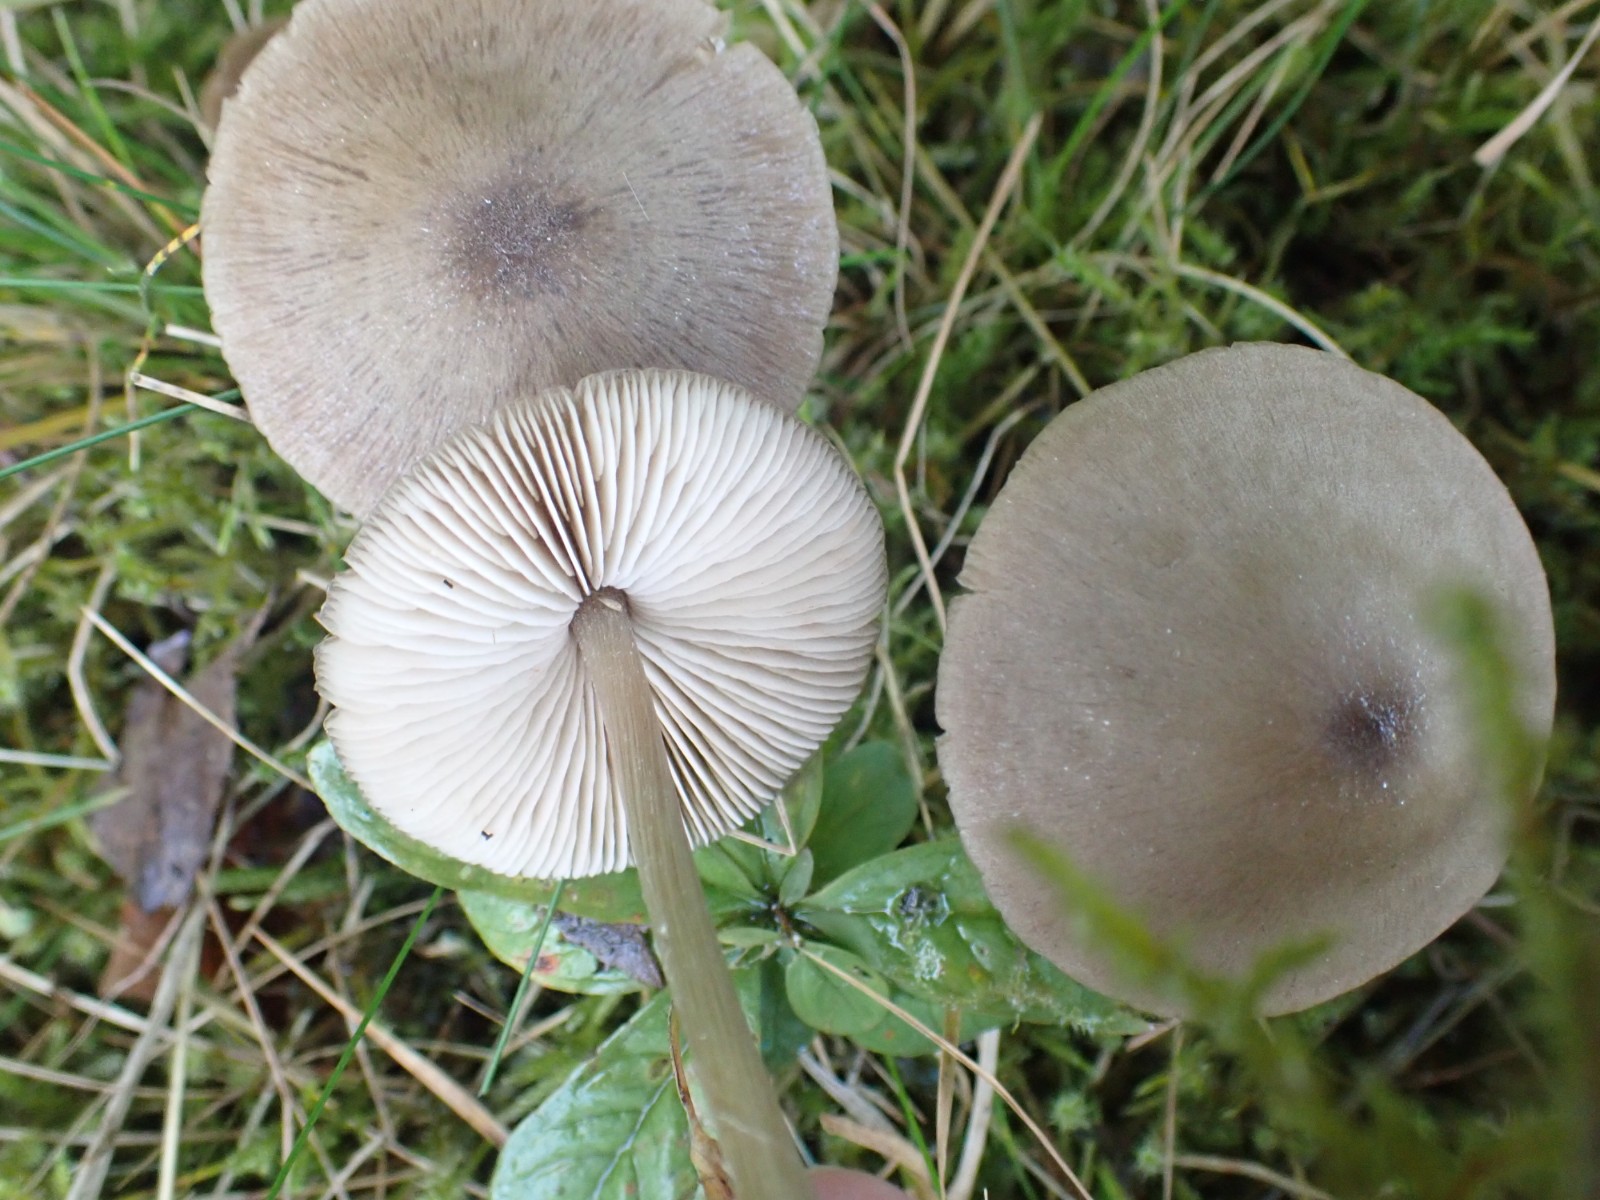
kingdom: Fungi
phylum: Basidiomycota
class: Agaricomycetes
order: Agaricales
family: Entolomataceae
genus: Entoloma
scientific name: Entoloma
